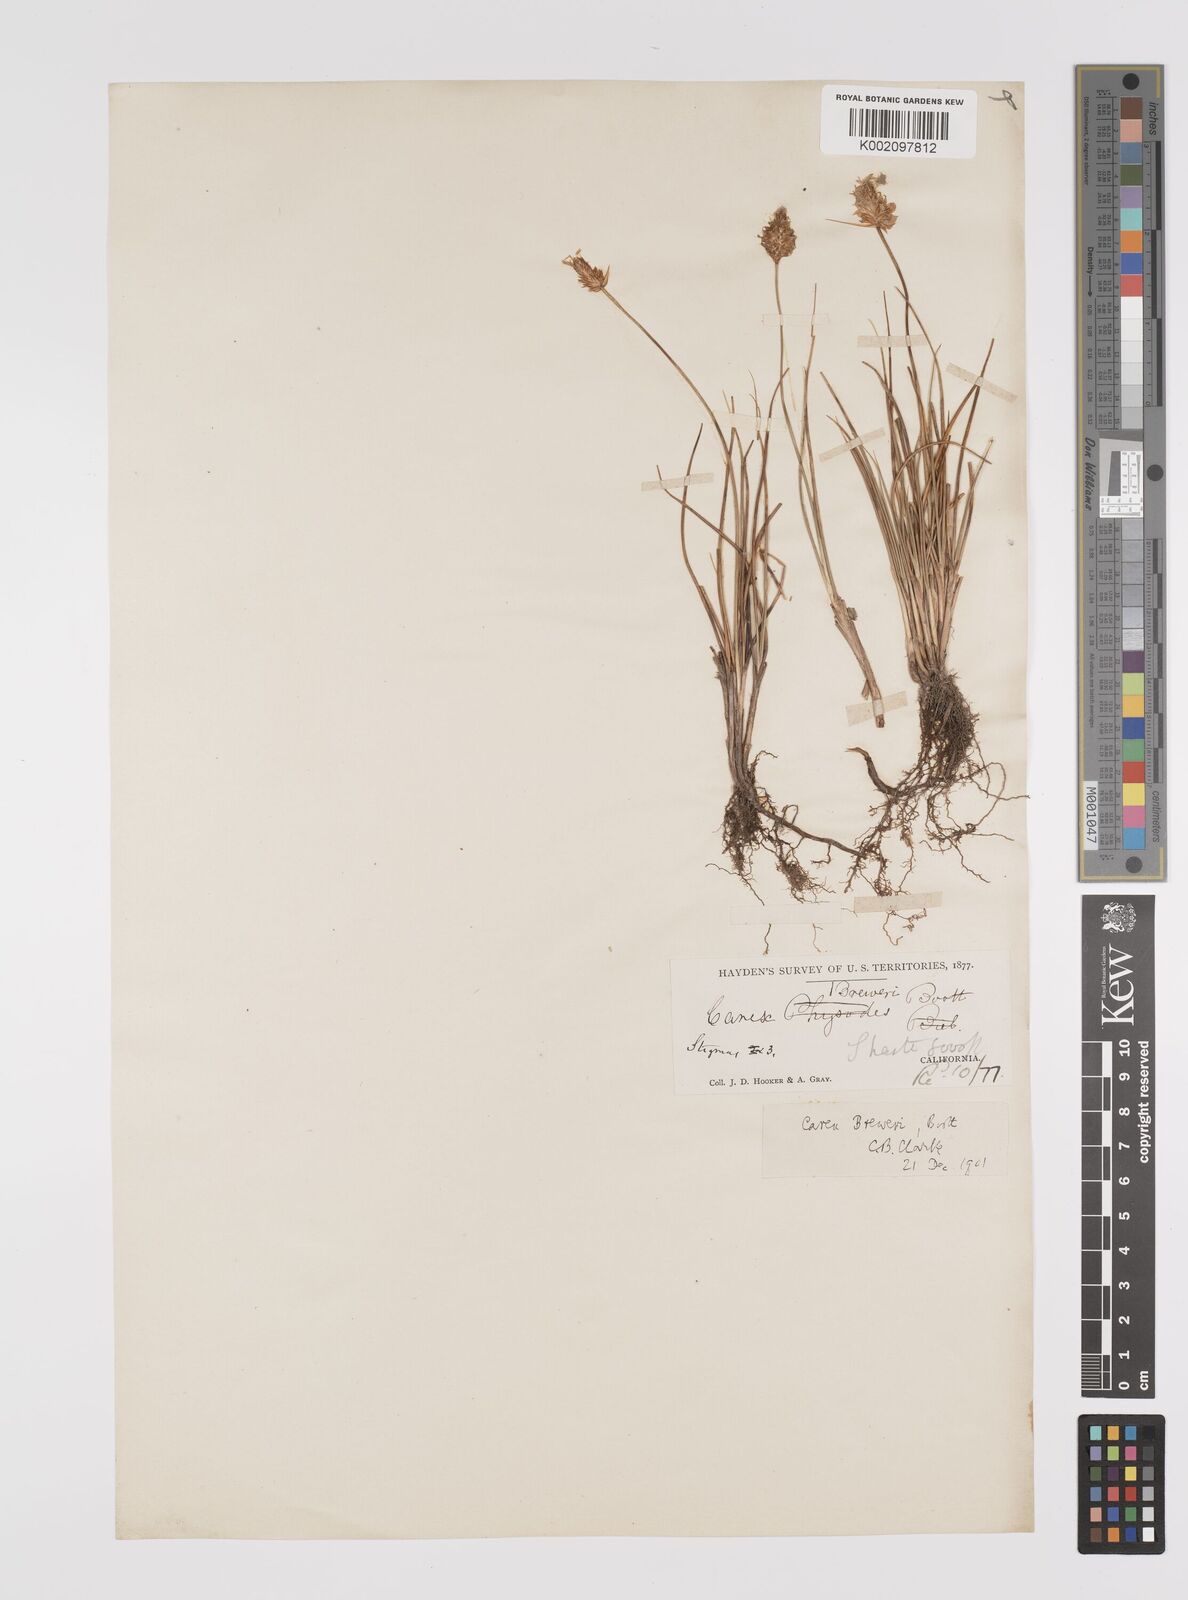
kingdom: Plantae
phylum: Tracheophyta
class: Liliopsida
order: Poales
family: Cyperaceae
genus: Carex
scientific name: Carex breweri
